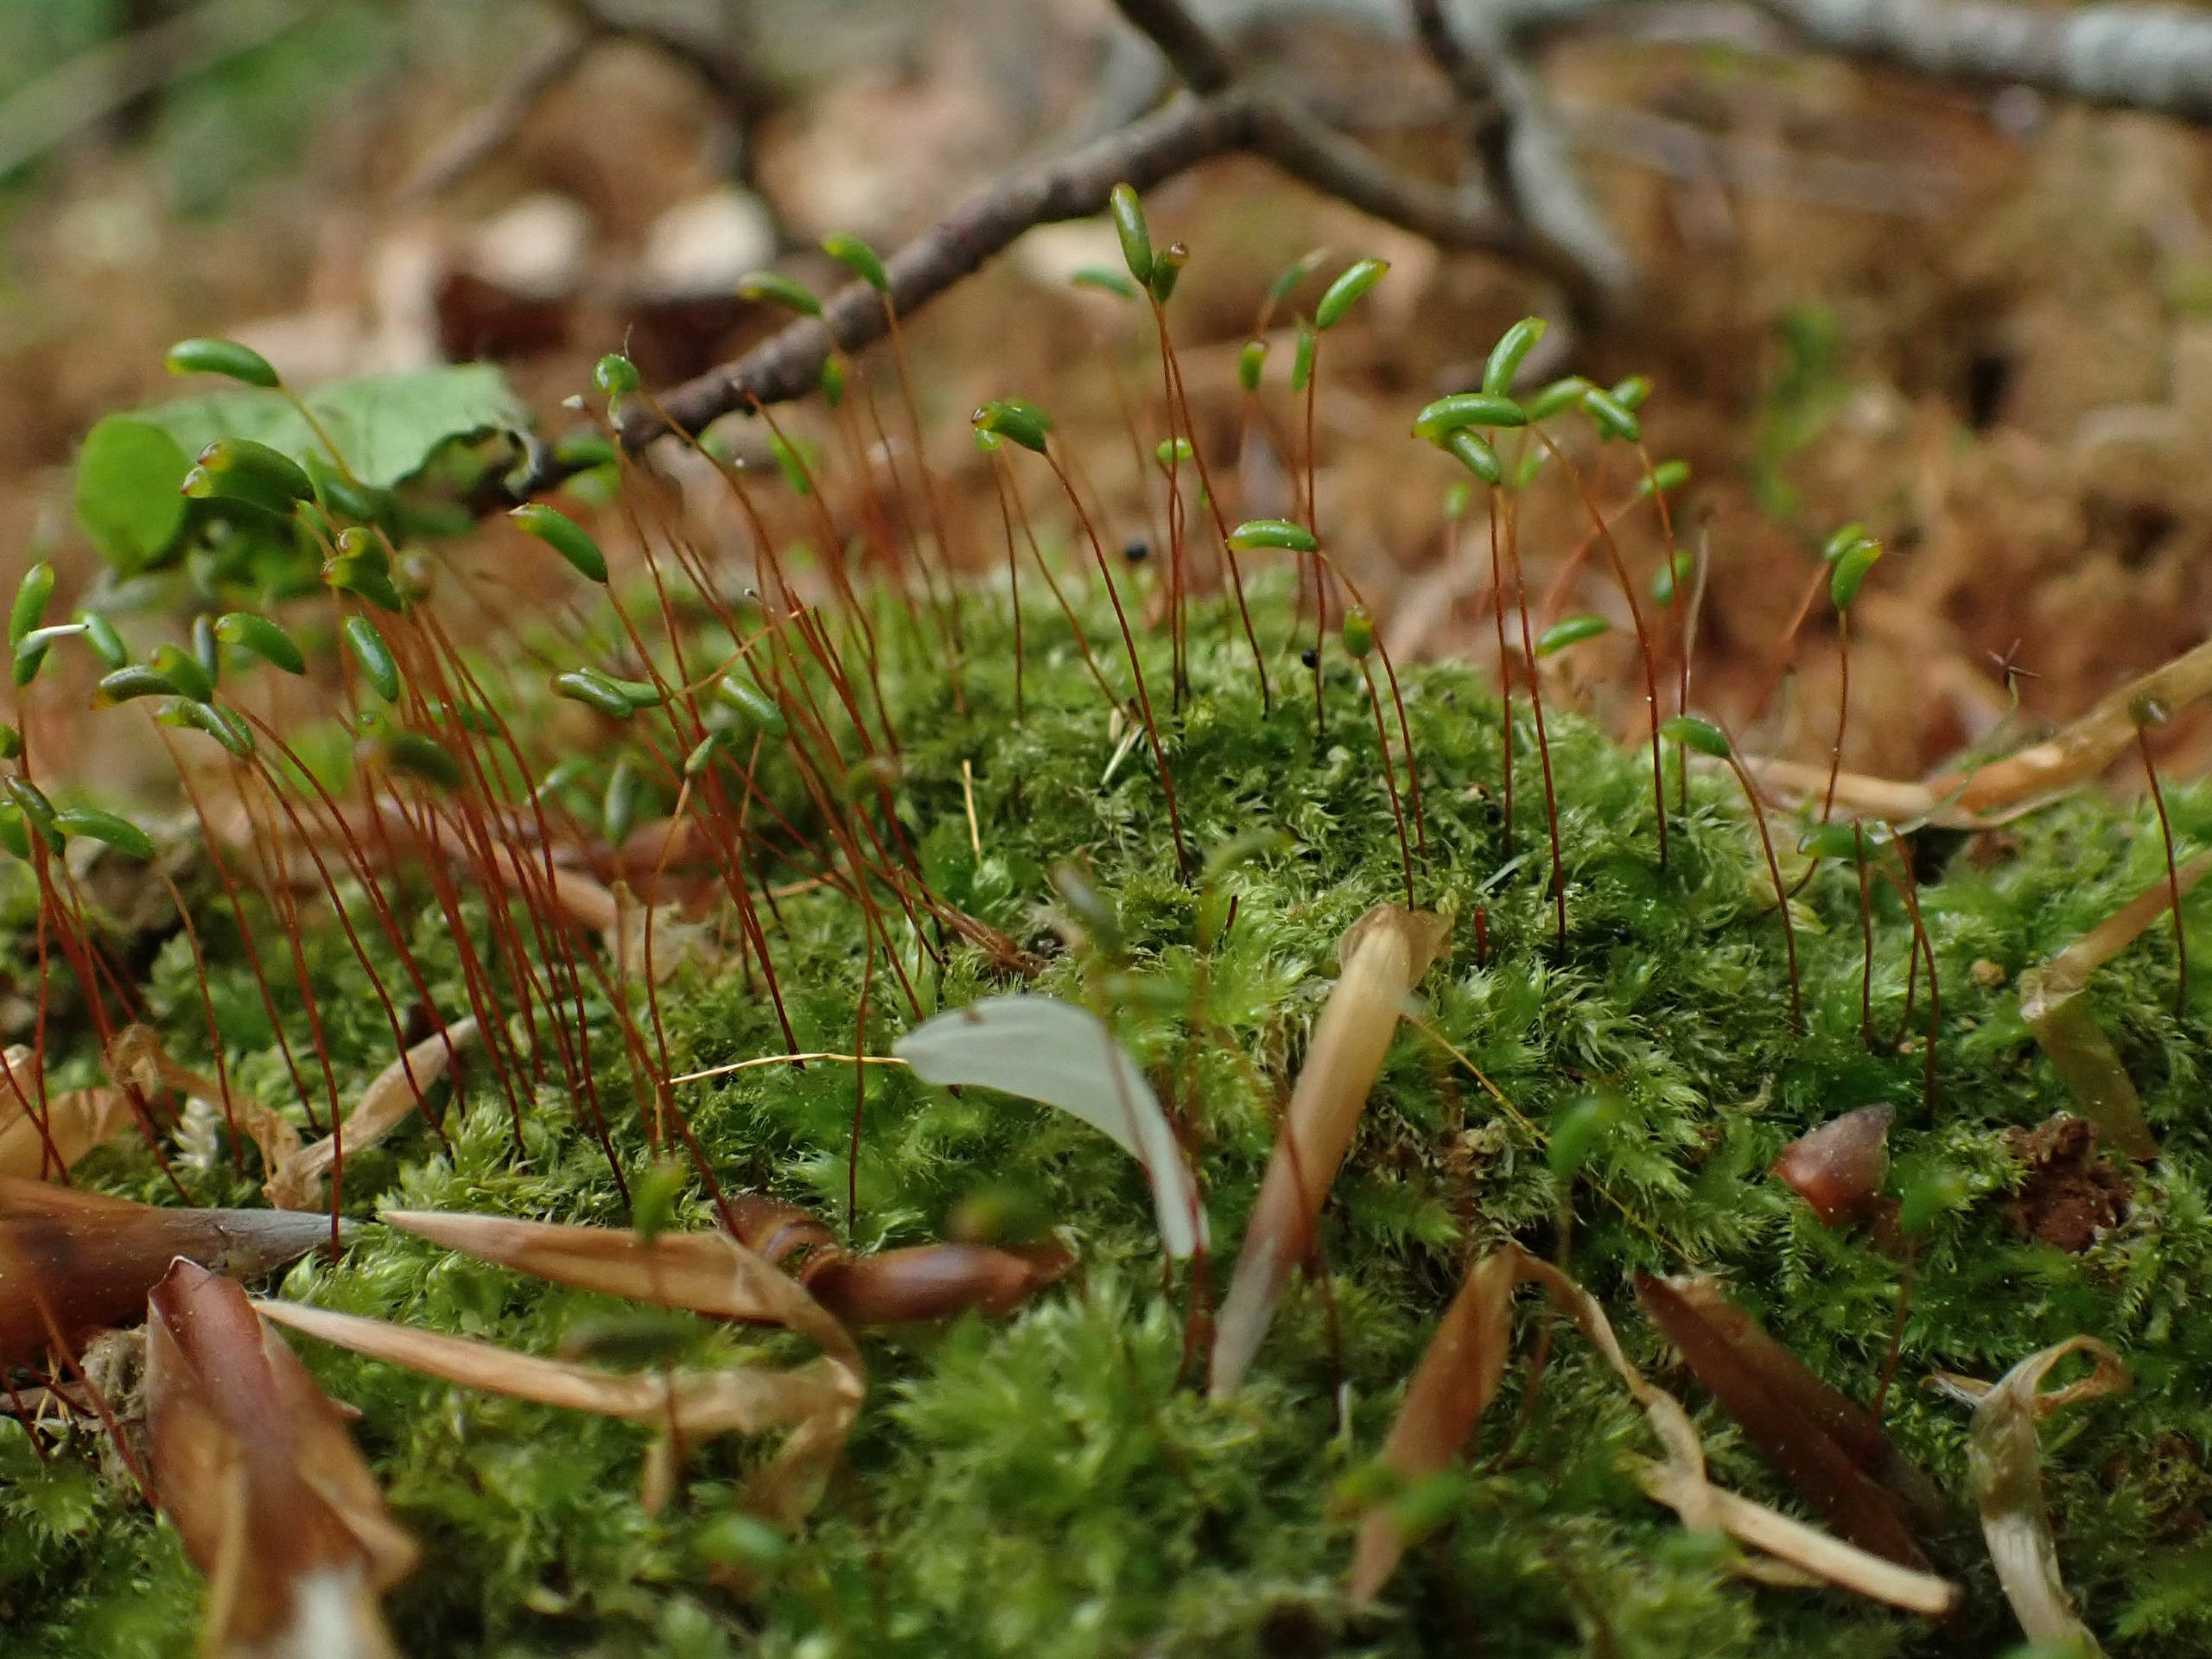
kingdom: Plantae
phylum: Bryophyta
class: Bryopsida
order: Hypnales
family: Plagiotheciaceae
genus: Herzogiella
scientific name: Herzogiella seligeri
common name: Stub-pølsekapsel
